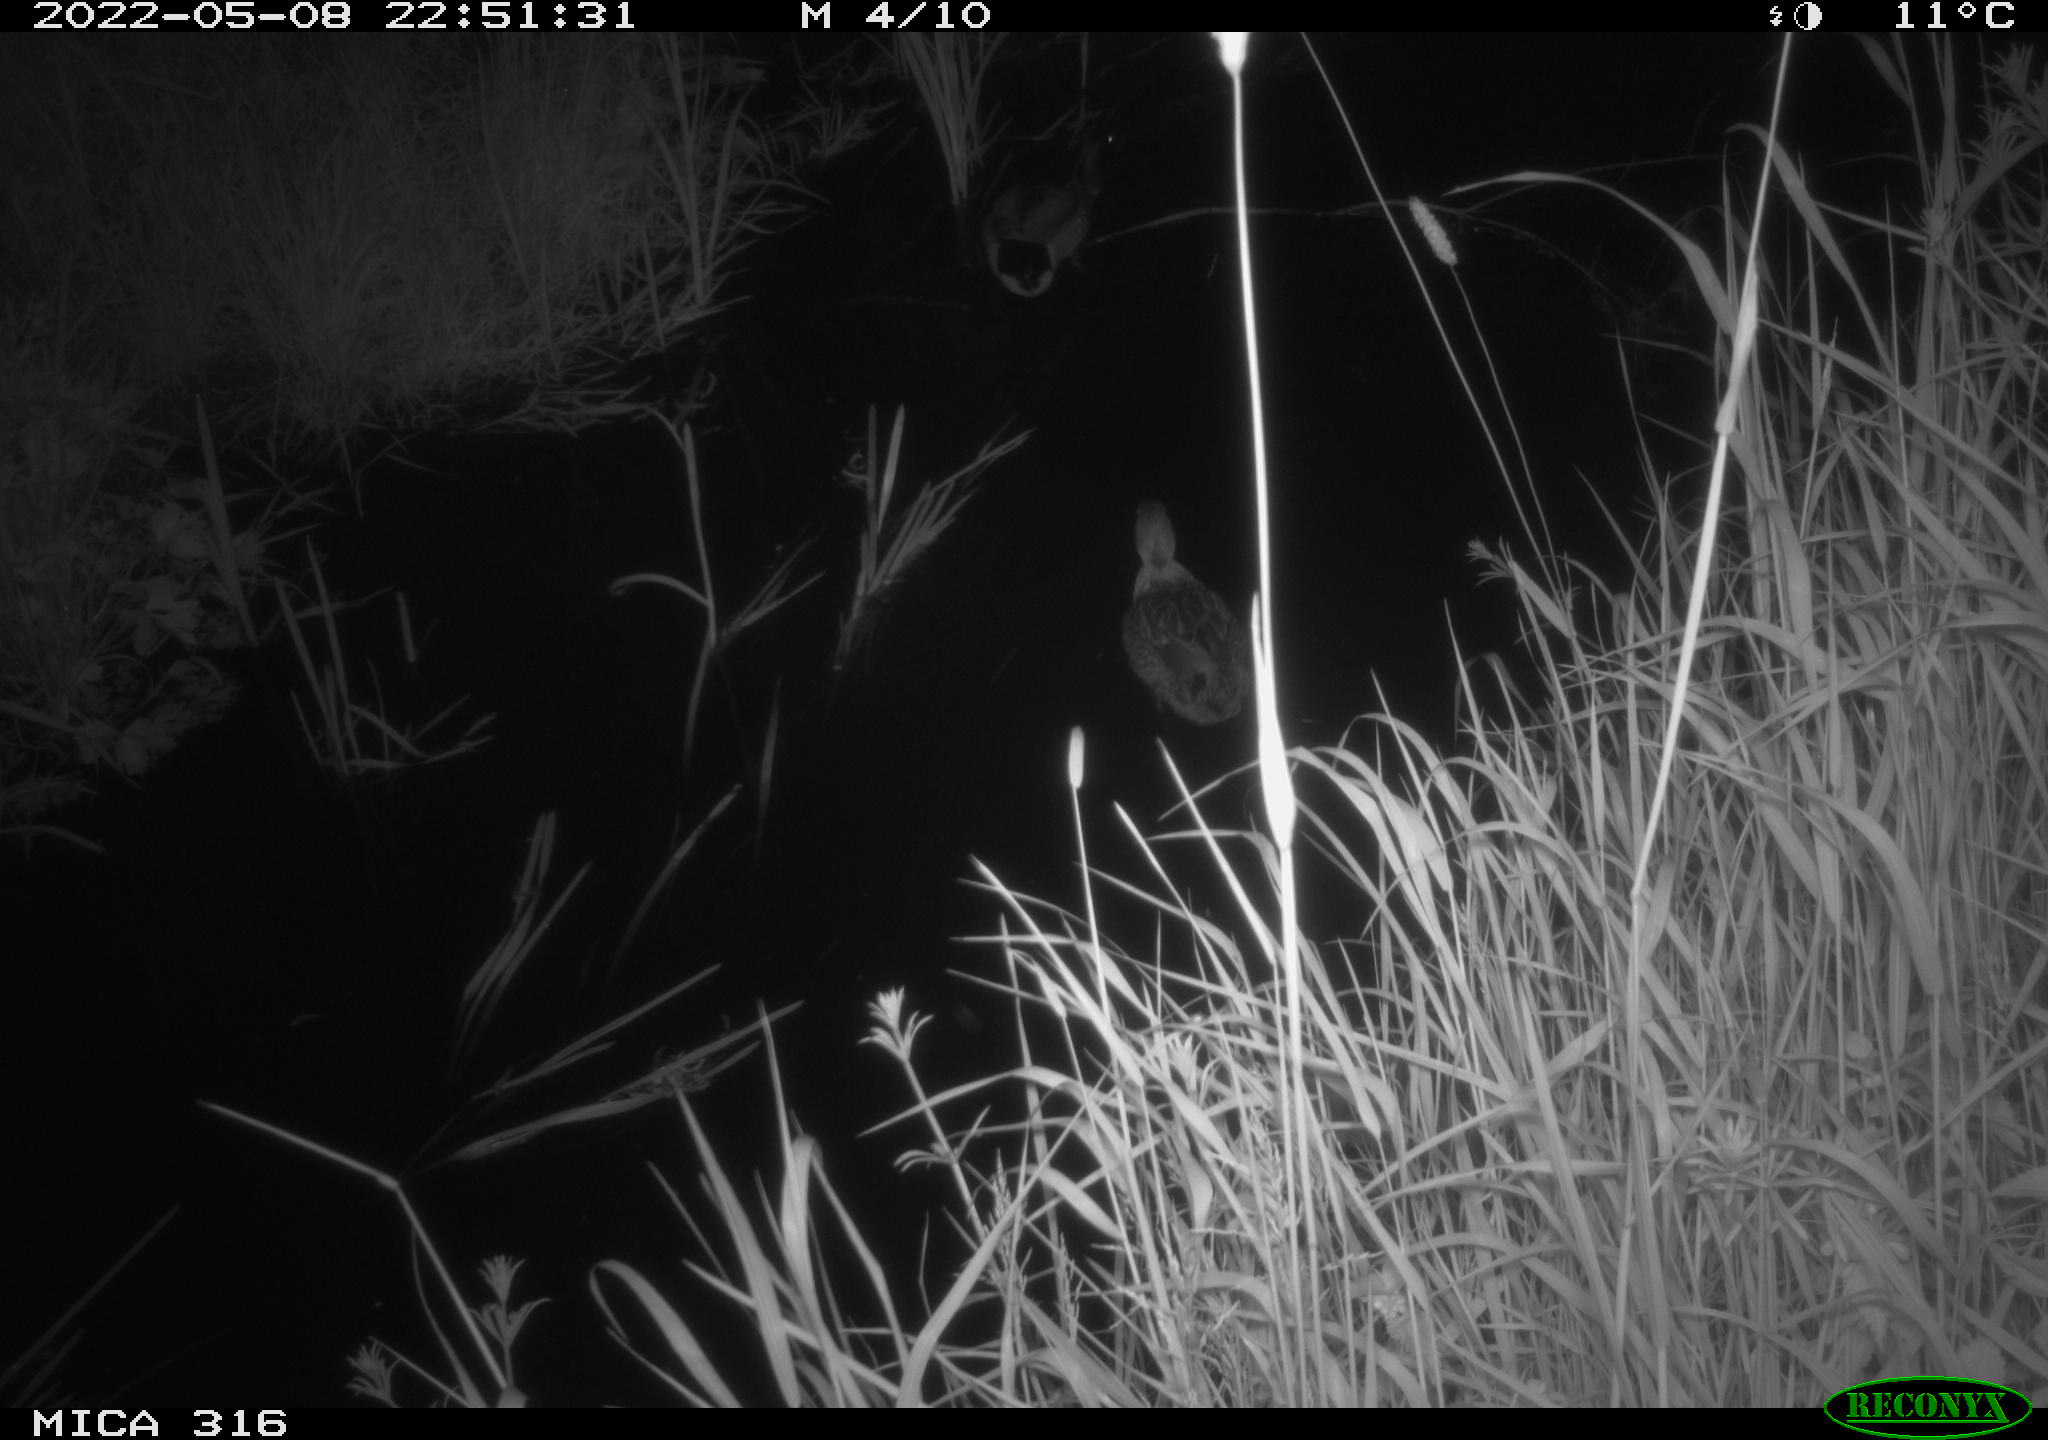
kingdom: Animalia
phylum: Chordata
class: Aves
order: Anseriformes
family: Anatidae
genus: Anas
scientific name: Anas platyrhynchos
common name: Mallard
